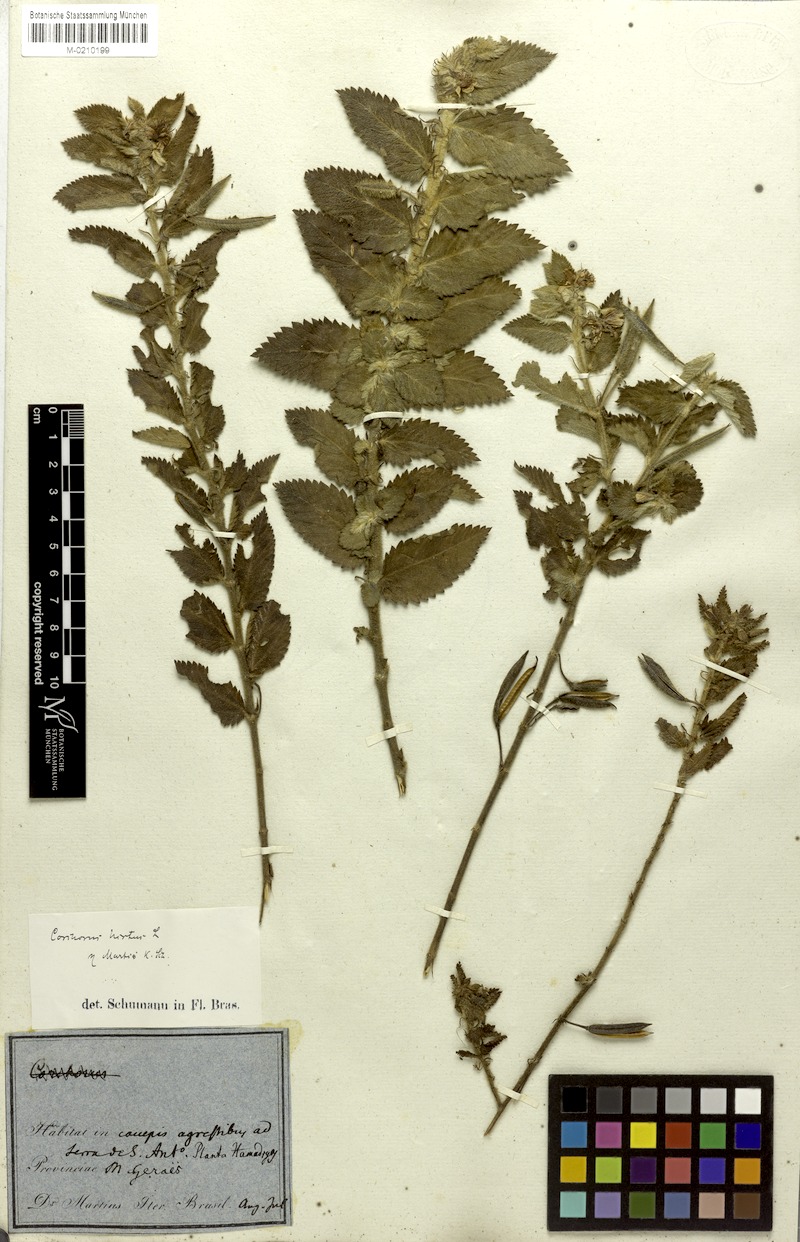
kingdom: Plantae
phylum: Tracheophyta
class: Magnoliopsida
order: Malvales
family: Malvaceae
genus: Corchorus
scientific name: Corchorus hirtus
